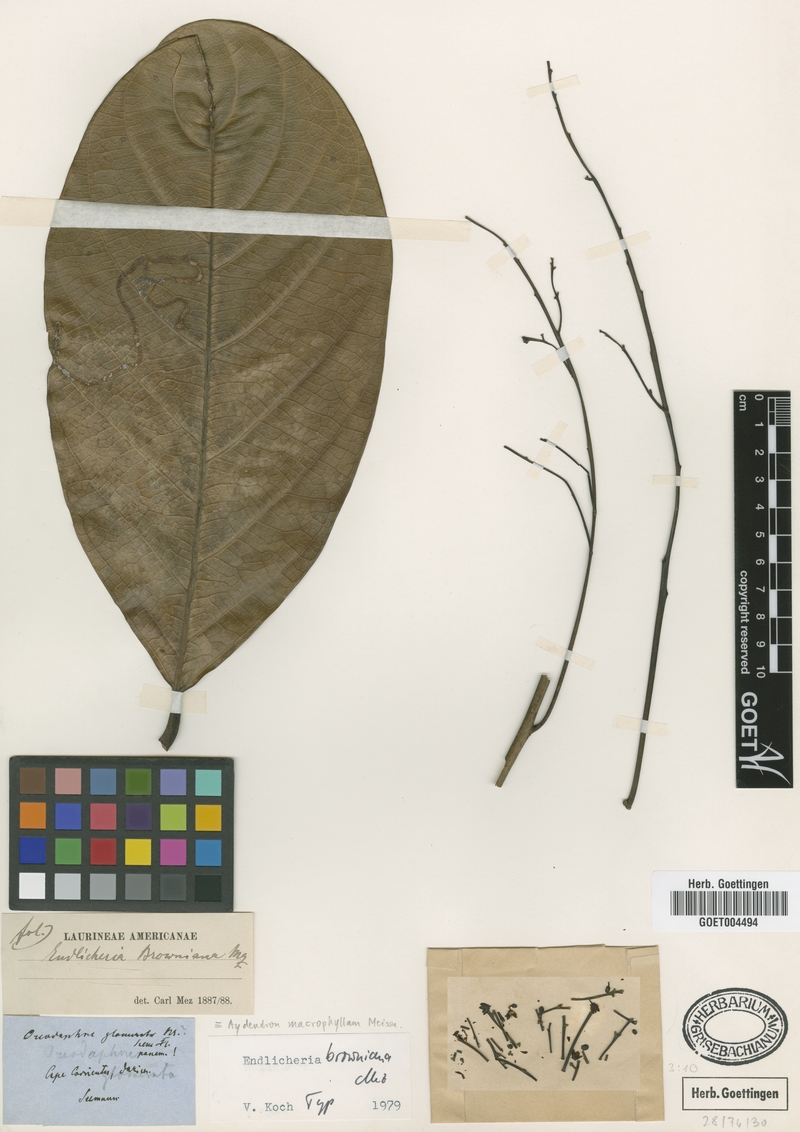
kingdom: Plantae
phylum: Tracheophyta
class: Magnoliopsida
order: Laurales
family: Lauraceae
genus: Endlicheria
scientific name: Endlicheria browniana
